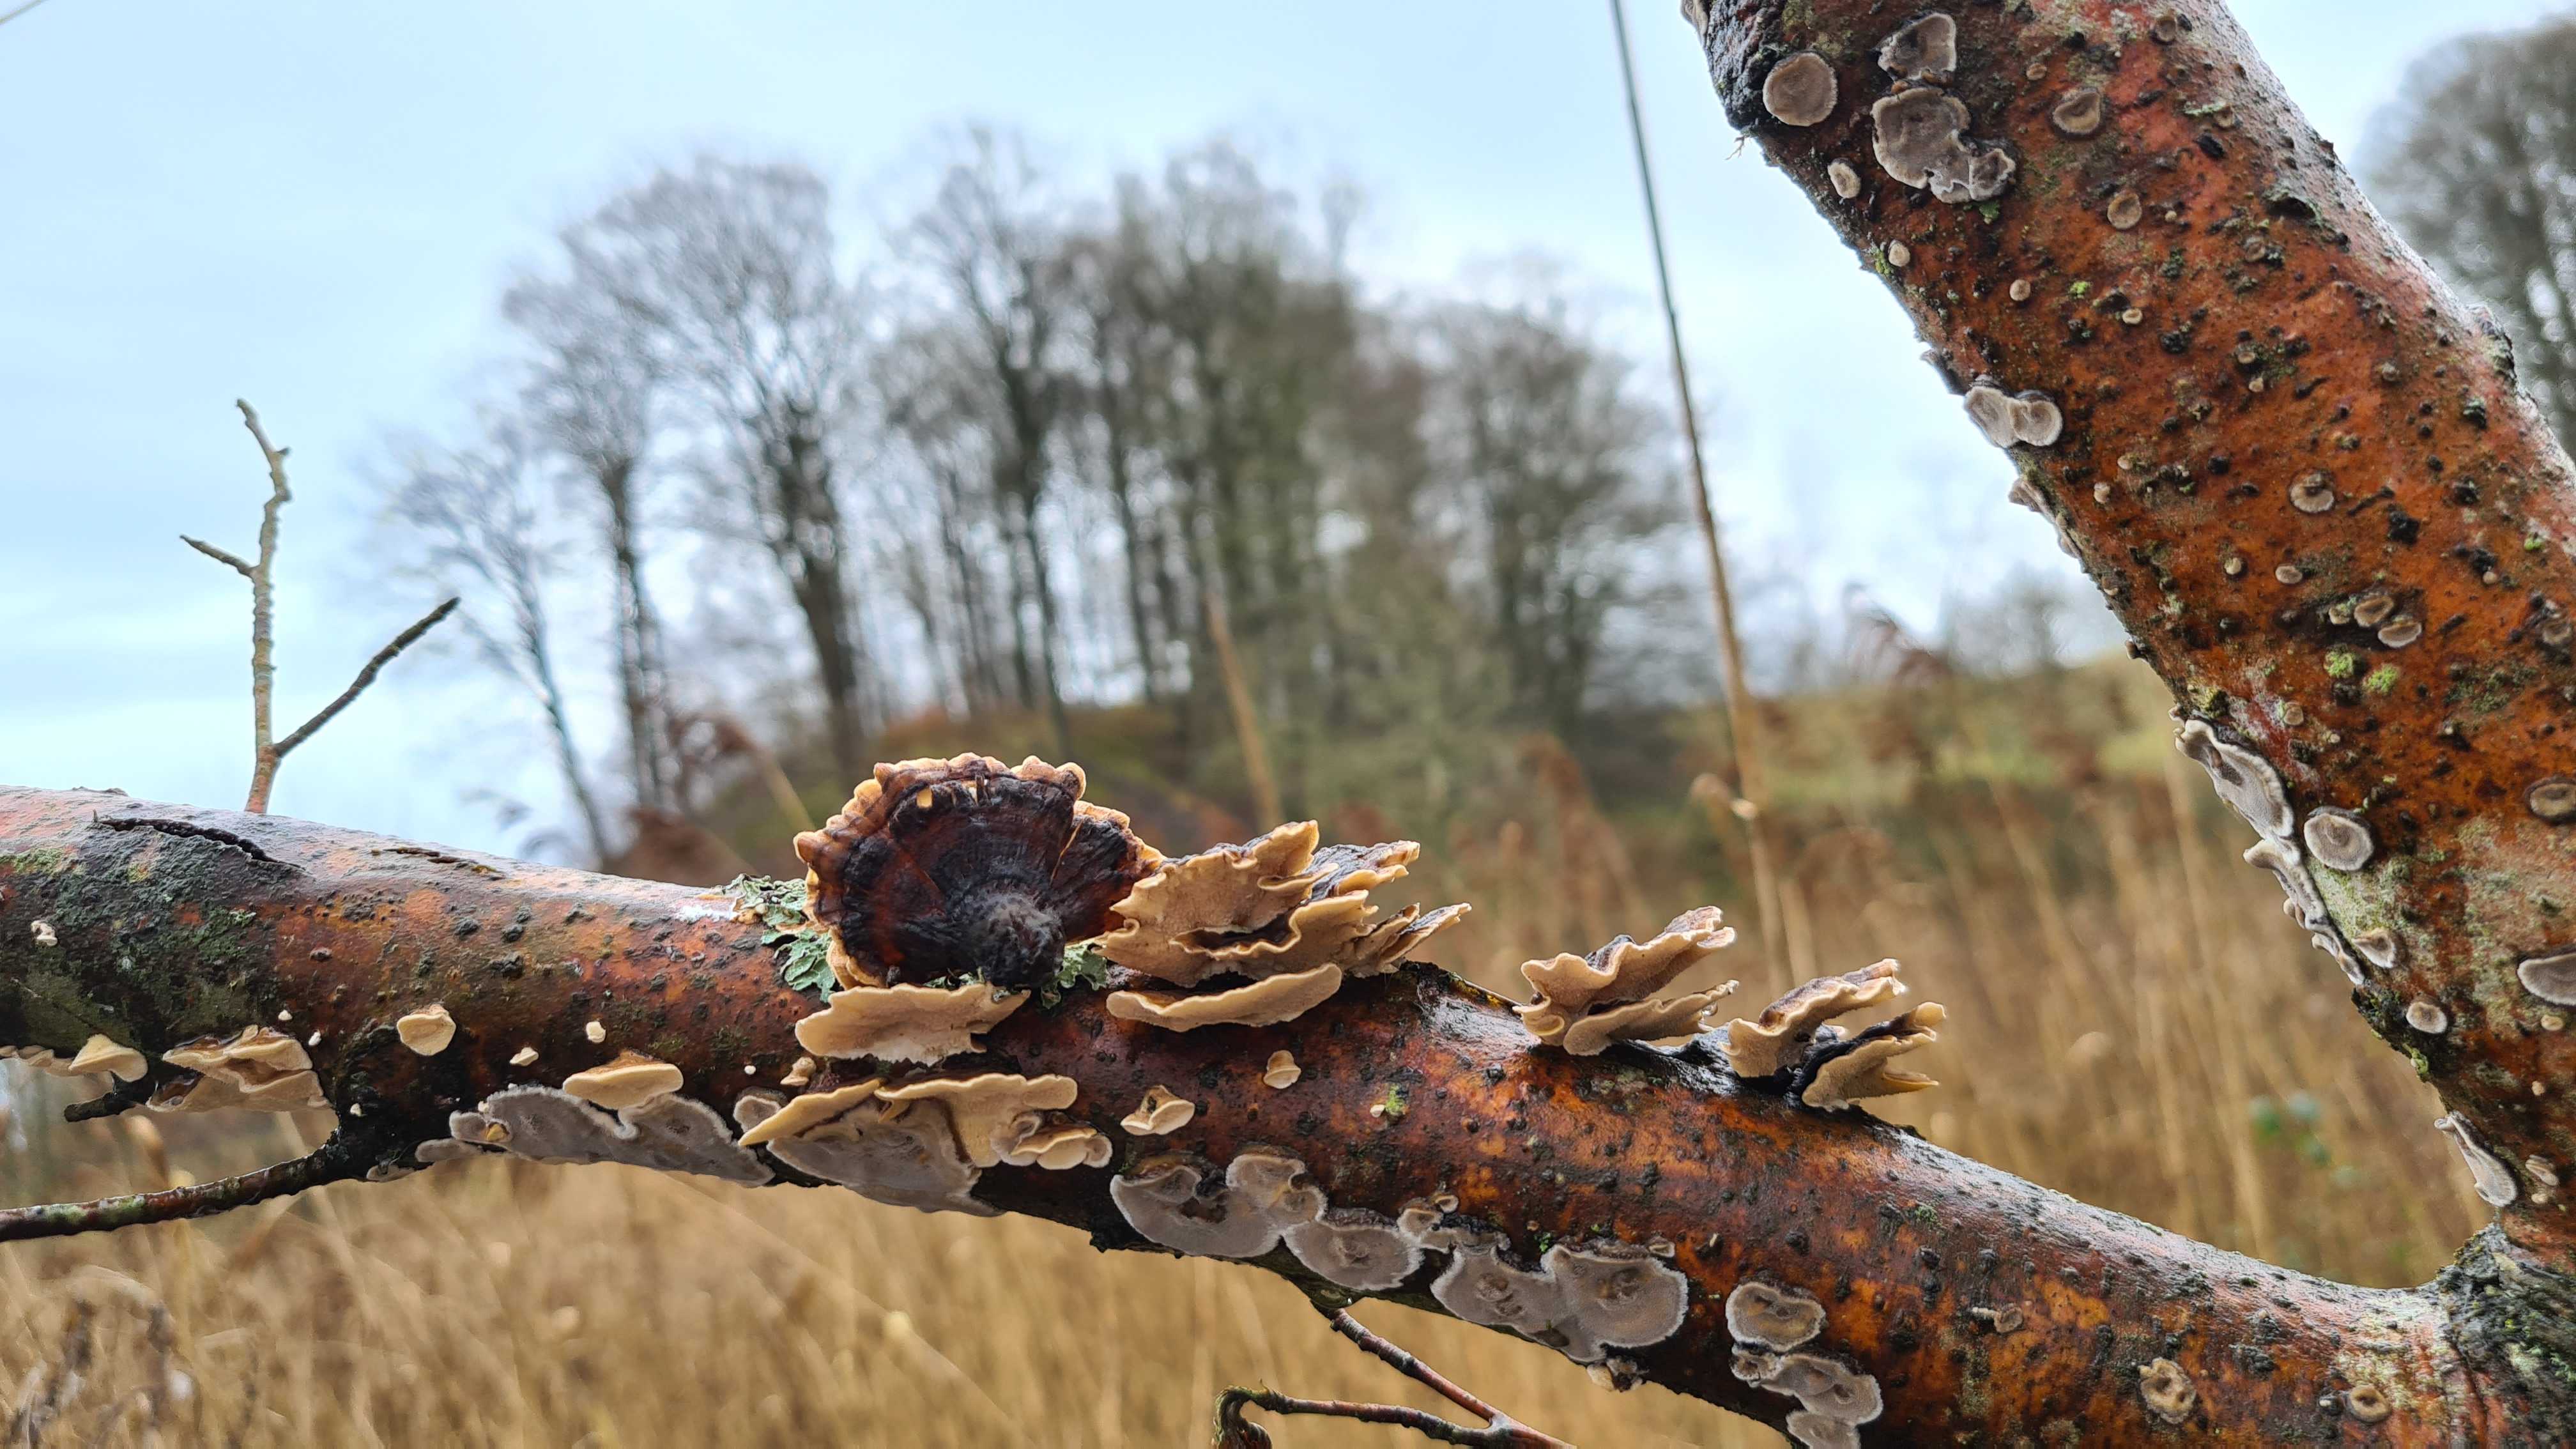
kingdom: Fungi
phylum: Basidiomycota
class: Agaricomycetes
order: Polyporales
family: Polyporaceae
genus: Trametes
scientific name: Trametes versicolor
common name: broget læderporesvamp
